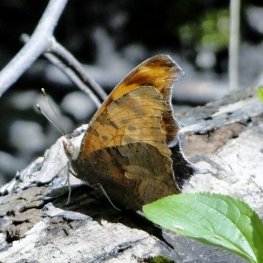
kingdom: Animalia
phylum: Arthropoda
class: Insecta
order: Lepidoptera
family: Nymphalidae
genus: Polygonia
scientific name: Polygonia interrogationis
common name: Question Mark
